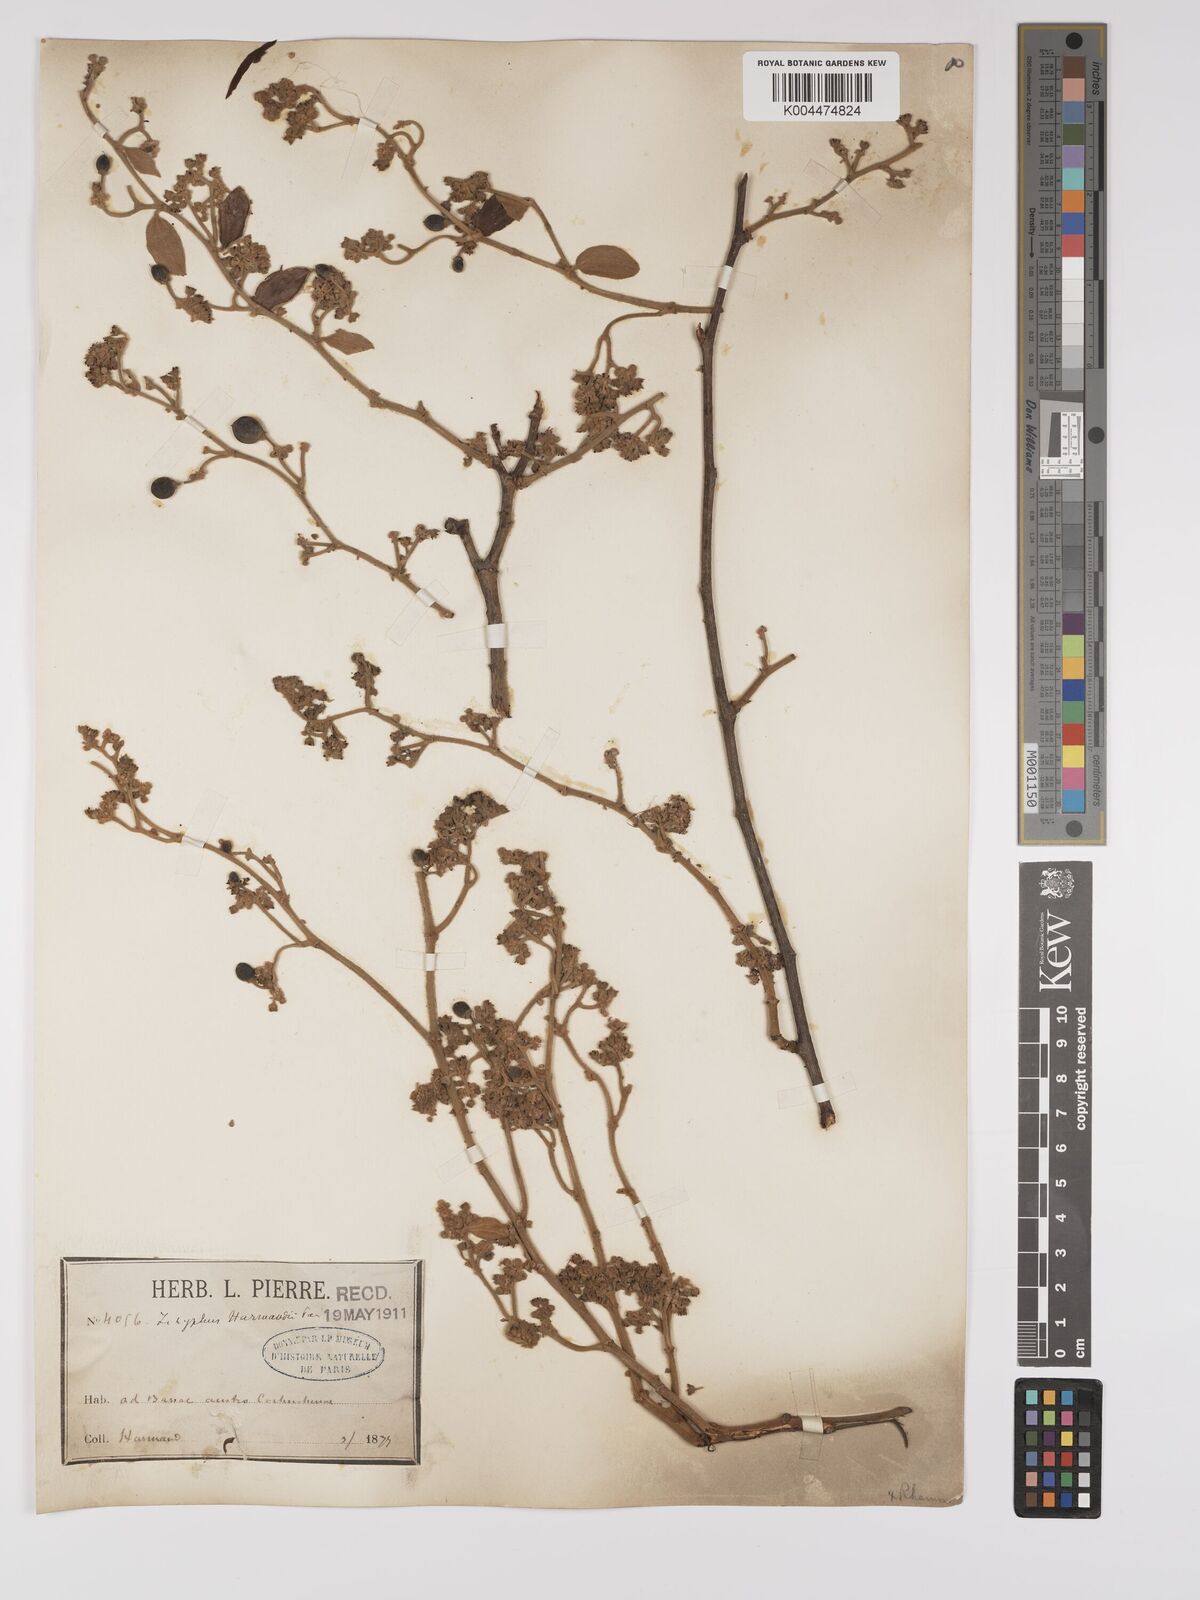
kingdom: Plantae
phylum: Tracheophyta
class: Magnoliopsida
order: Rosales
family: Rhamnaceae
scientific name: Rhamnaceae
